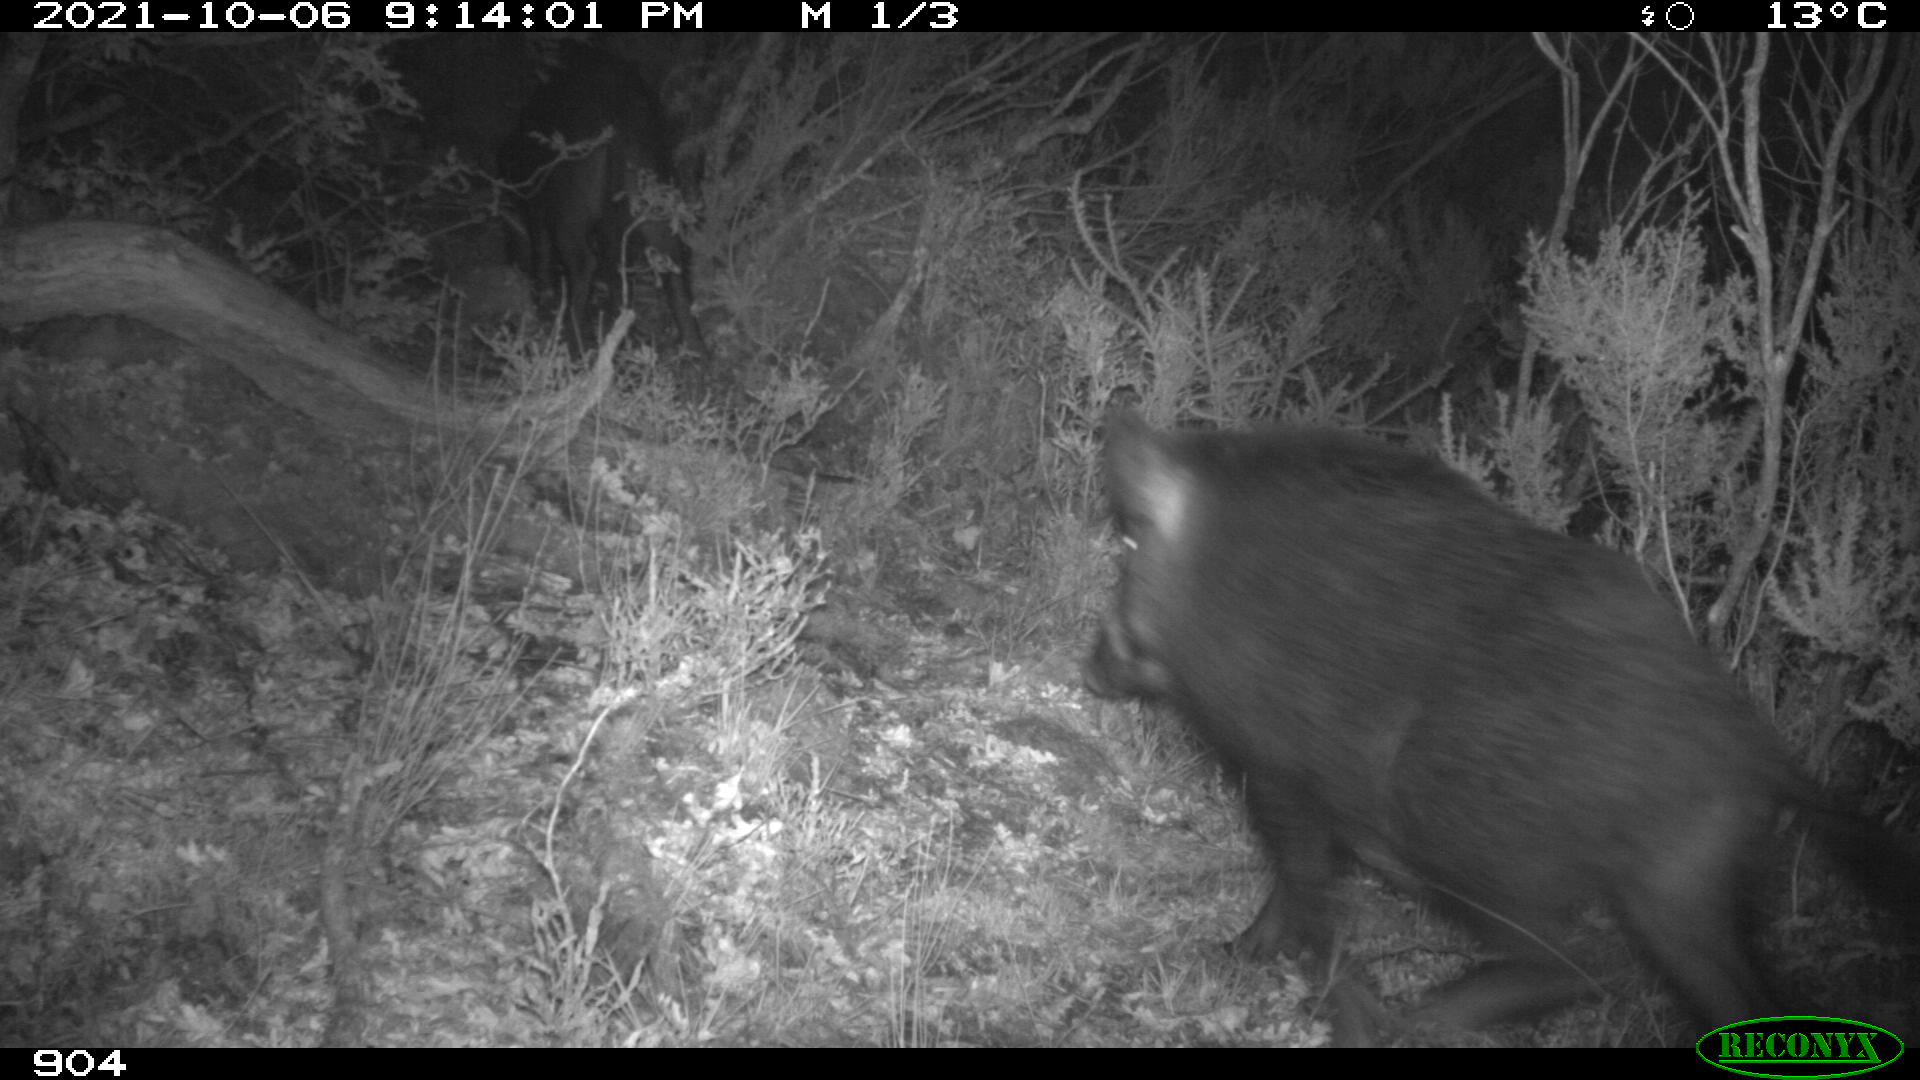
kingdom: Animalia
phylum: Chordata
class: Mammalia
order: Artiodactyla
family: Suidae
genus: Sus
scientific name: Sus scrofa
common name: Wild boar
